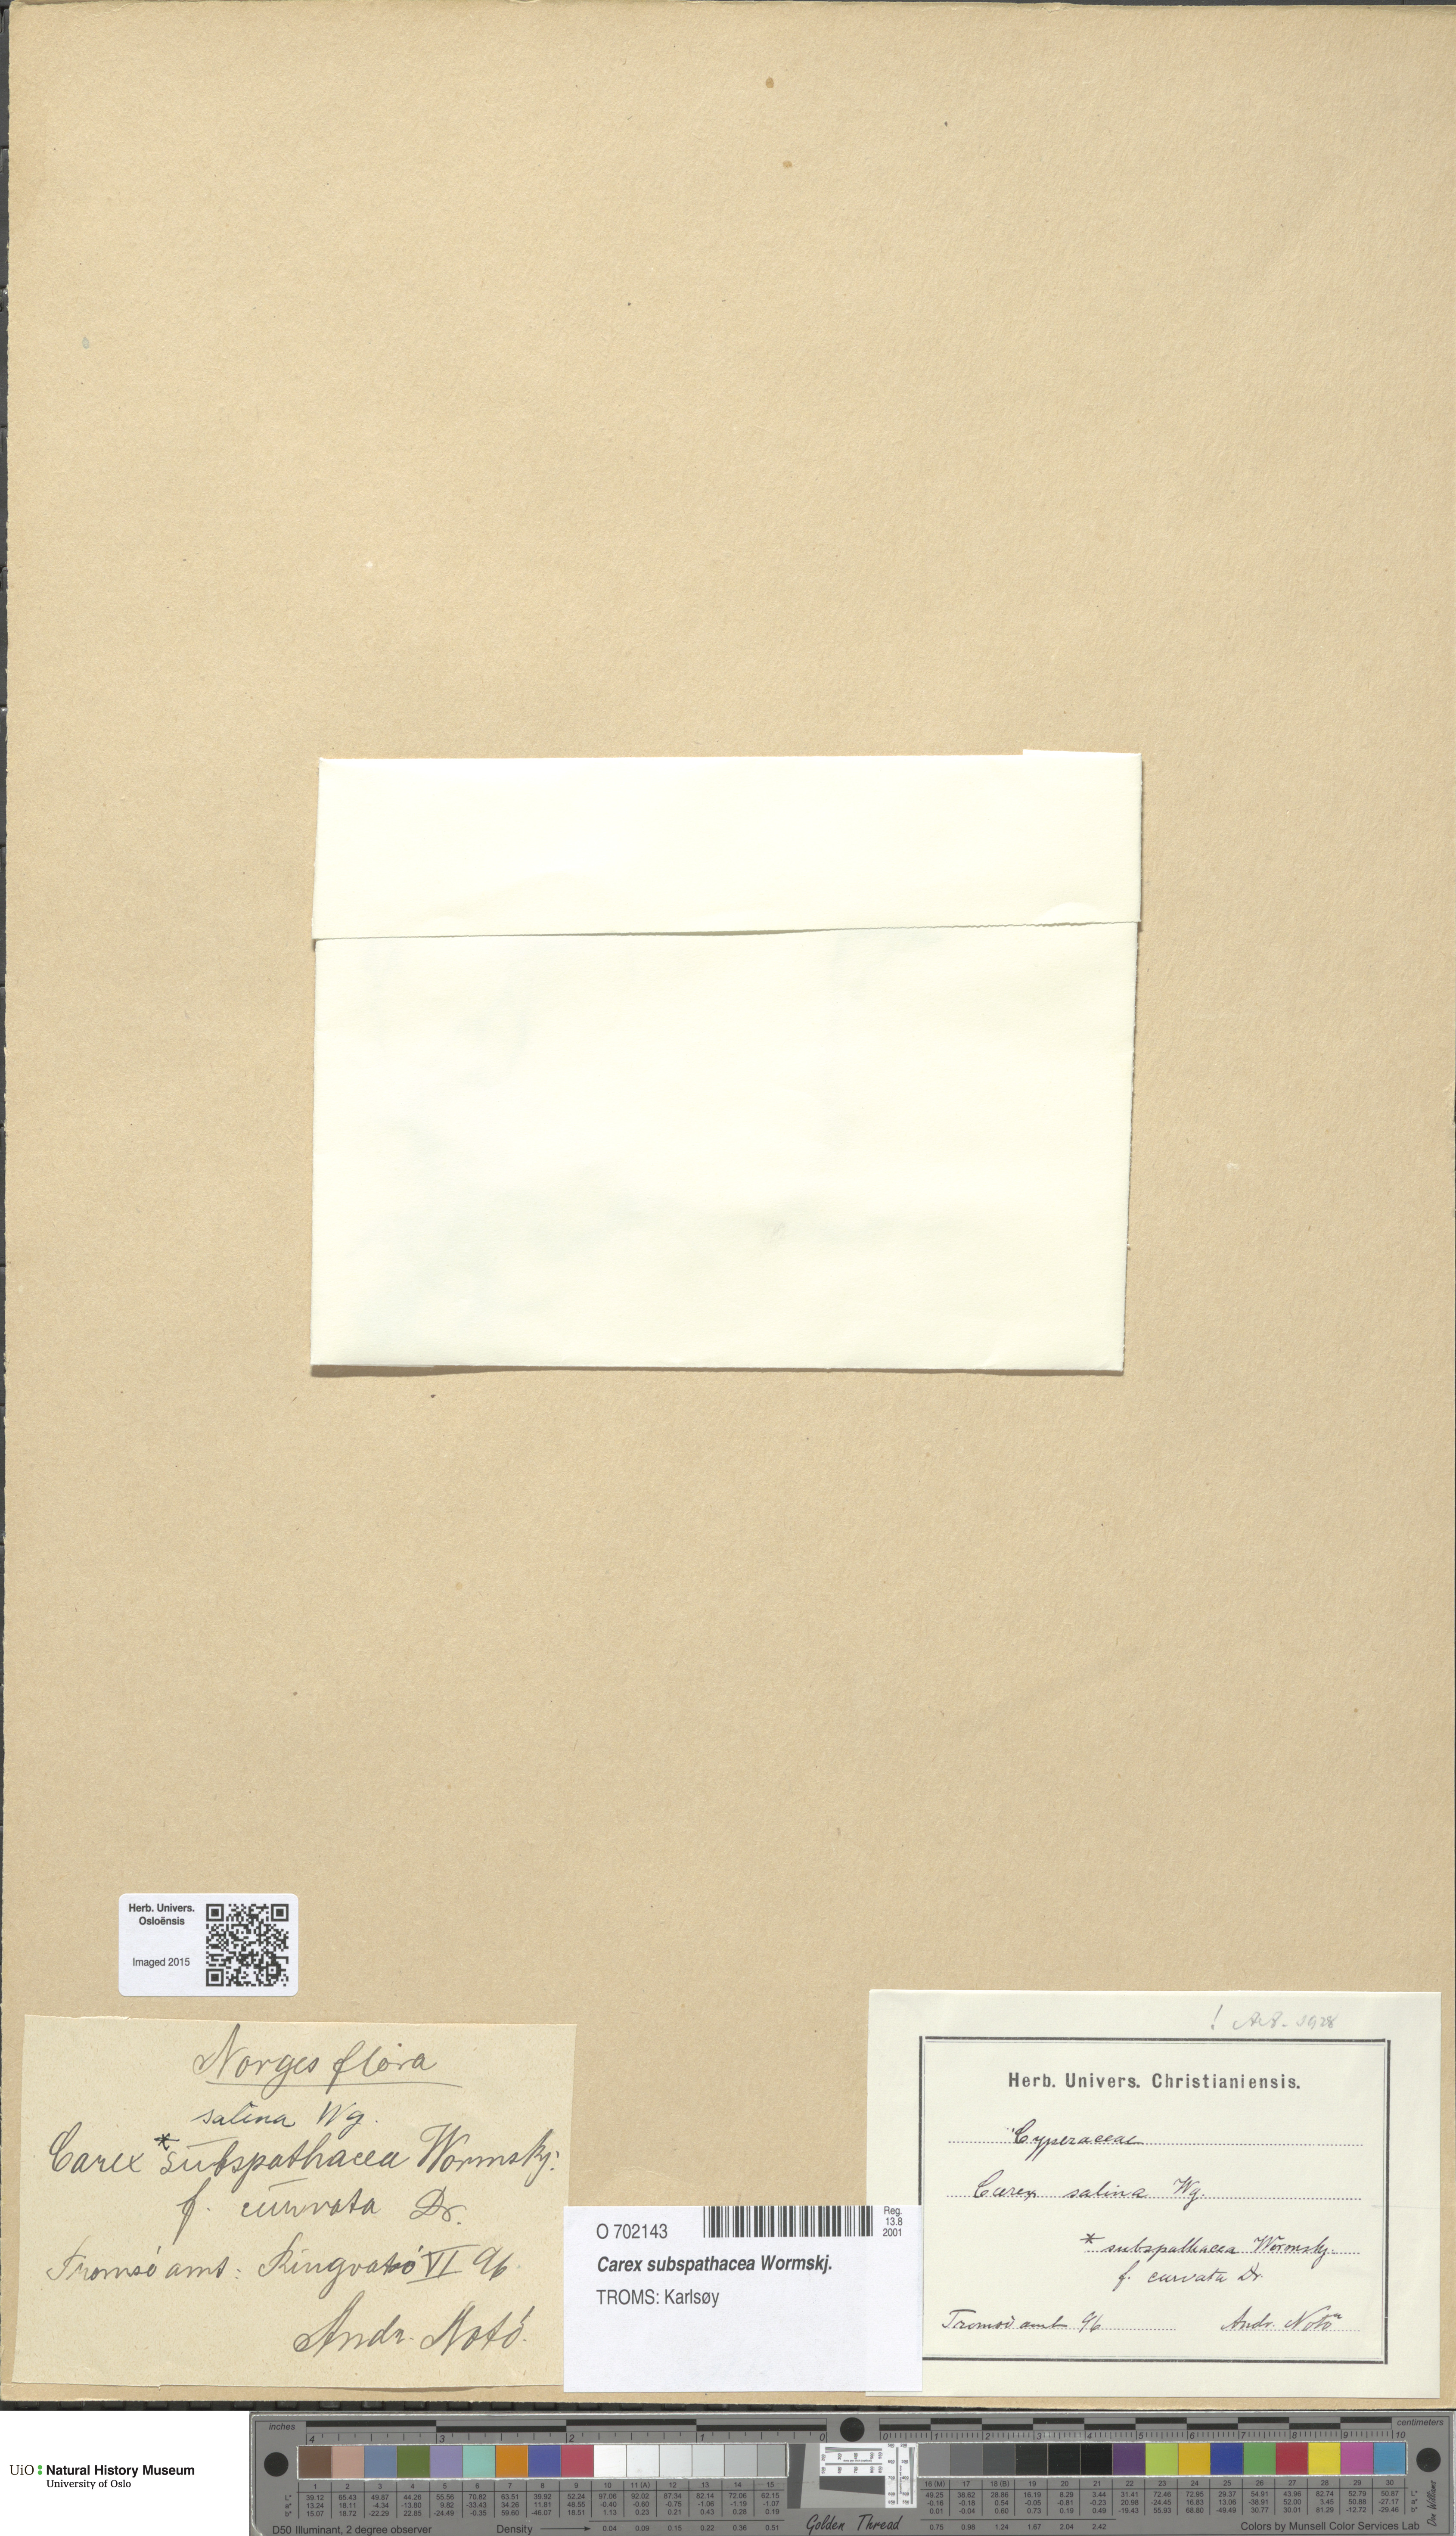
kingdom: Plantae
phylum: Tracheophyta
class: Liliopsida
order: Poales
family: Cyperaceae
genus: Carex
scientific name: Carex subspathacea
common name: Hoppner's sedge
